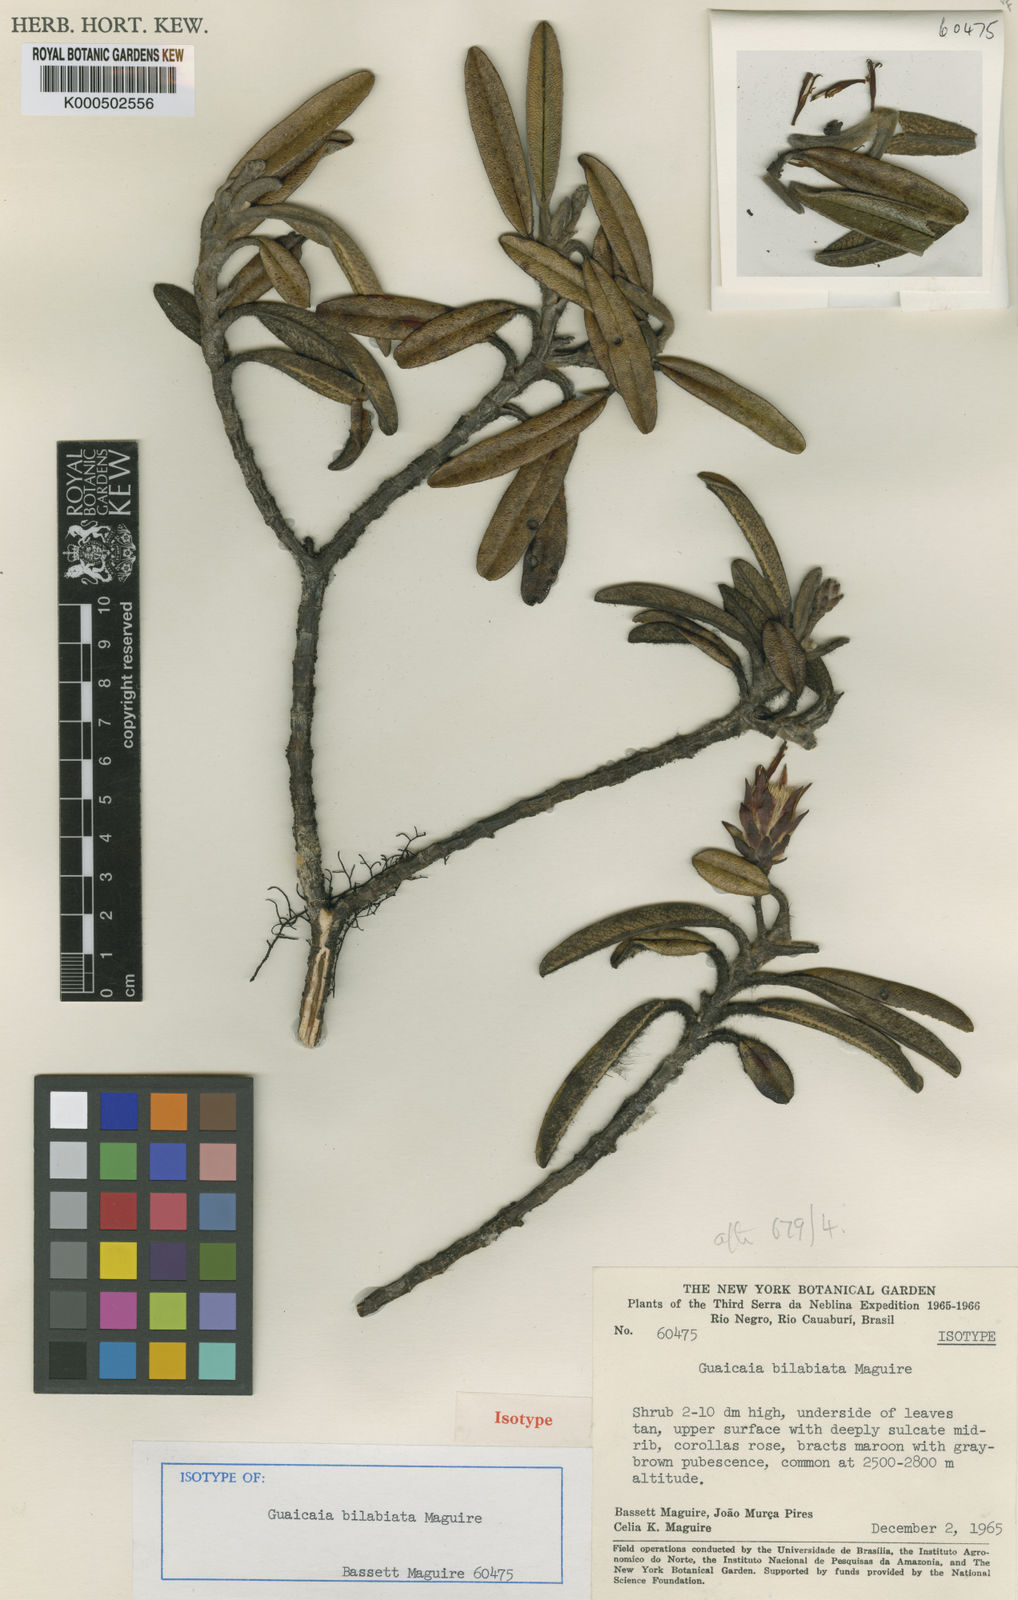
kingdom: Plantae
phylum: Tracheophyta
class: Magnoliopsida
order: Asterales
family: Asteraceae
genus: Glossarion
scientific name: Glossarion bilabiatum
